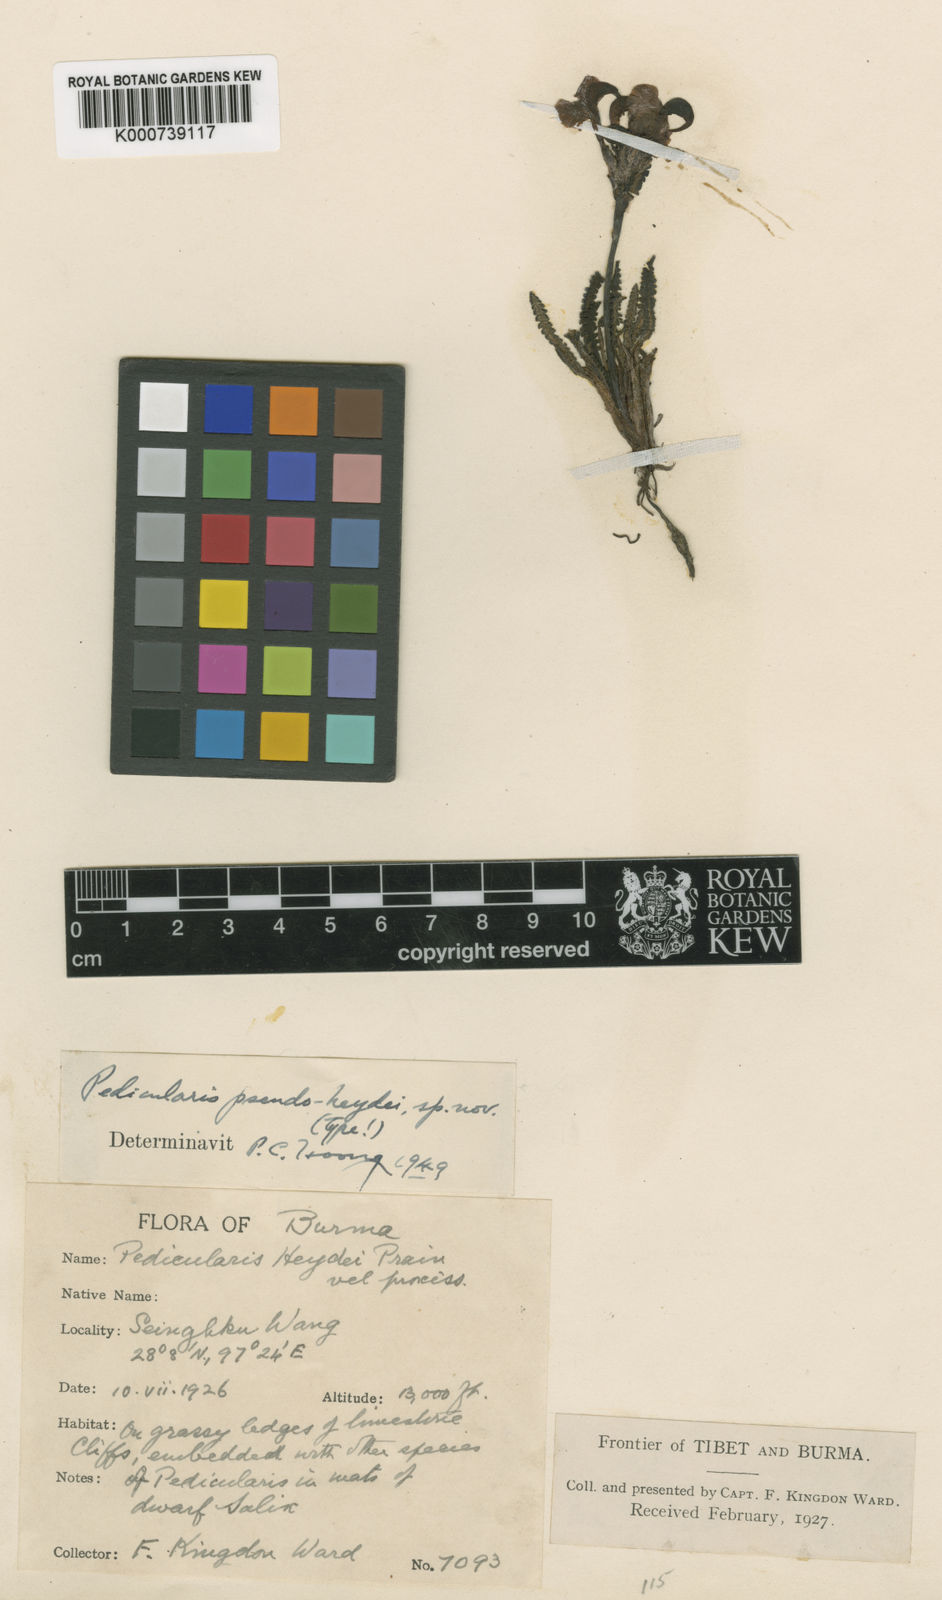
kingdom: Plantae
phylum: Tracheophyta
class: Magnoliopsida
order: Lamiales
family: Orobanchaceae
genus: Pedicularis
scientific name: Pedicularis
